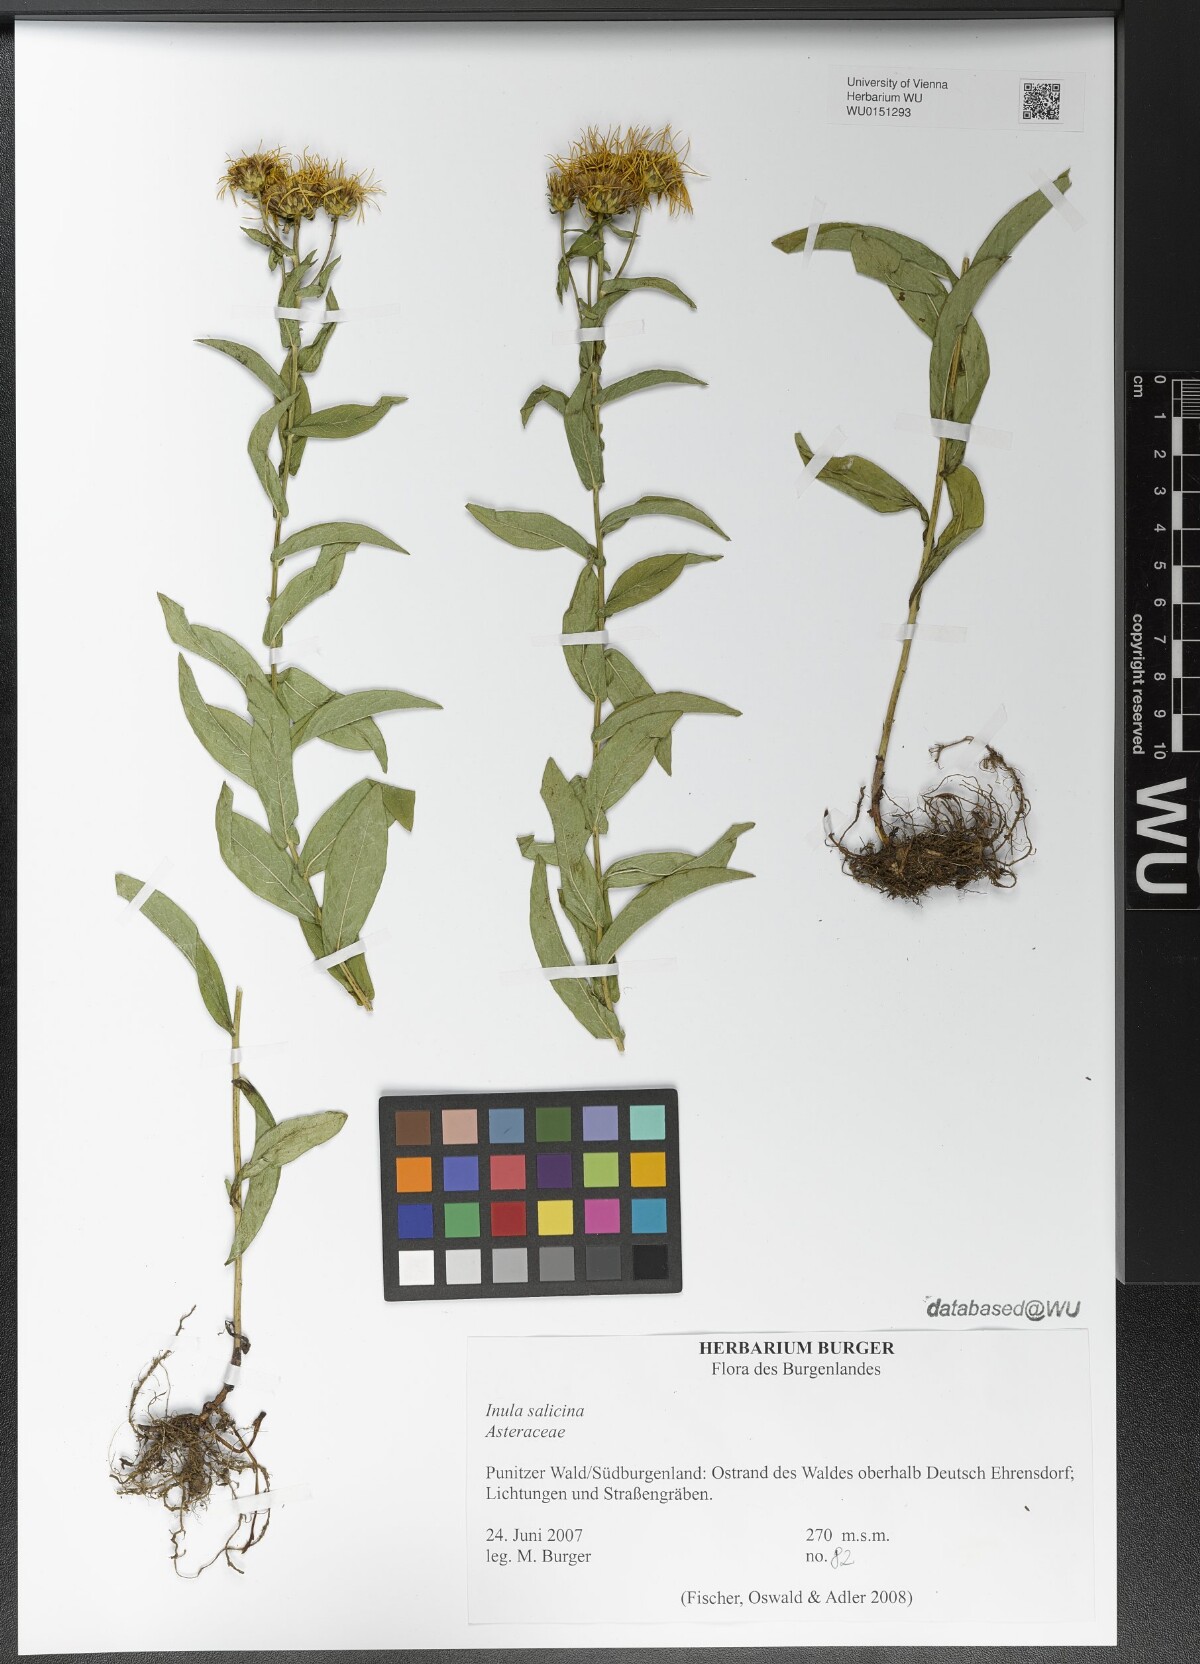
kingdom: Plantae
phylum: Tracheophyta
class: Magnoliopsida
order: Asterales
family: Asteraceae
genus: Pentanema
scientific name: Pentanema salicinum
